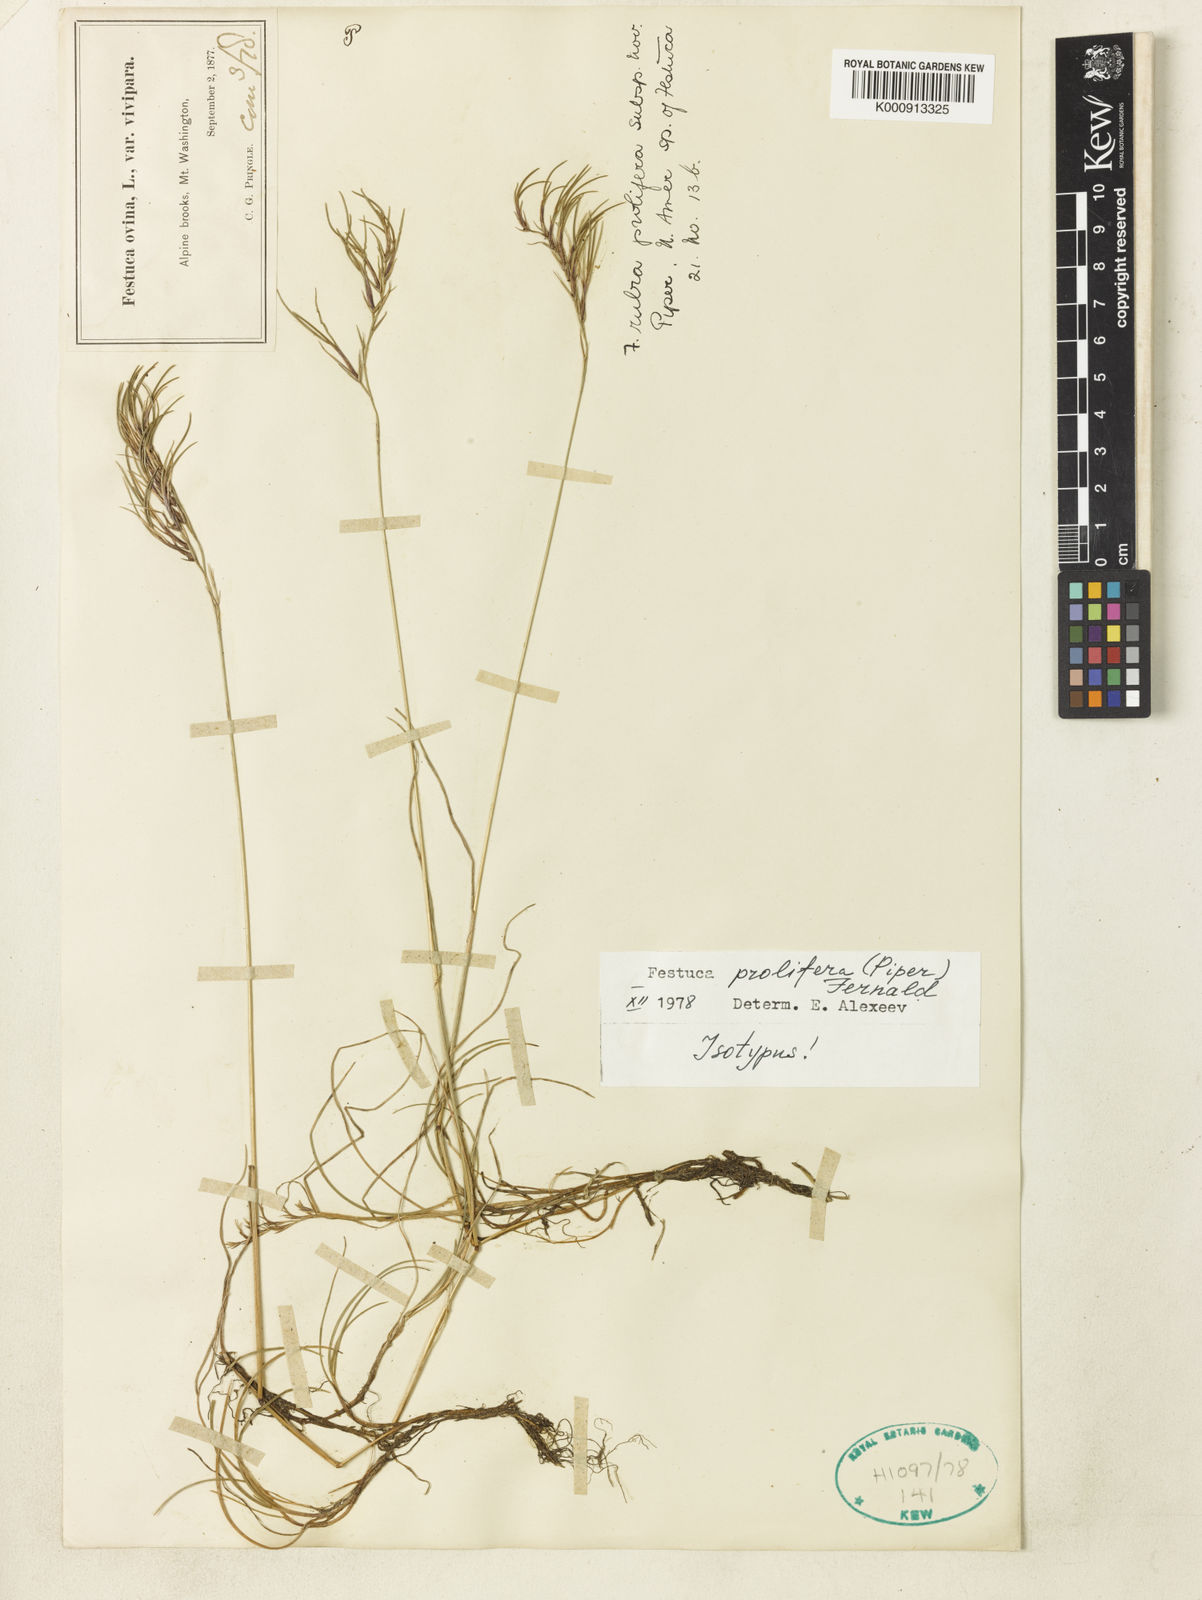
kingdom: Plantae
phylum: Tracheophyta
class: Liliopsida
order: Poales
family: Poaceae
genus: Festuca
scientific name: Festuca prolifera
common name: Proliferous fescue
